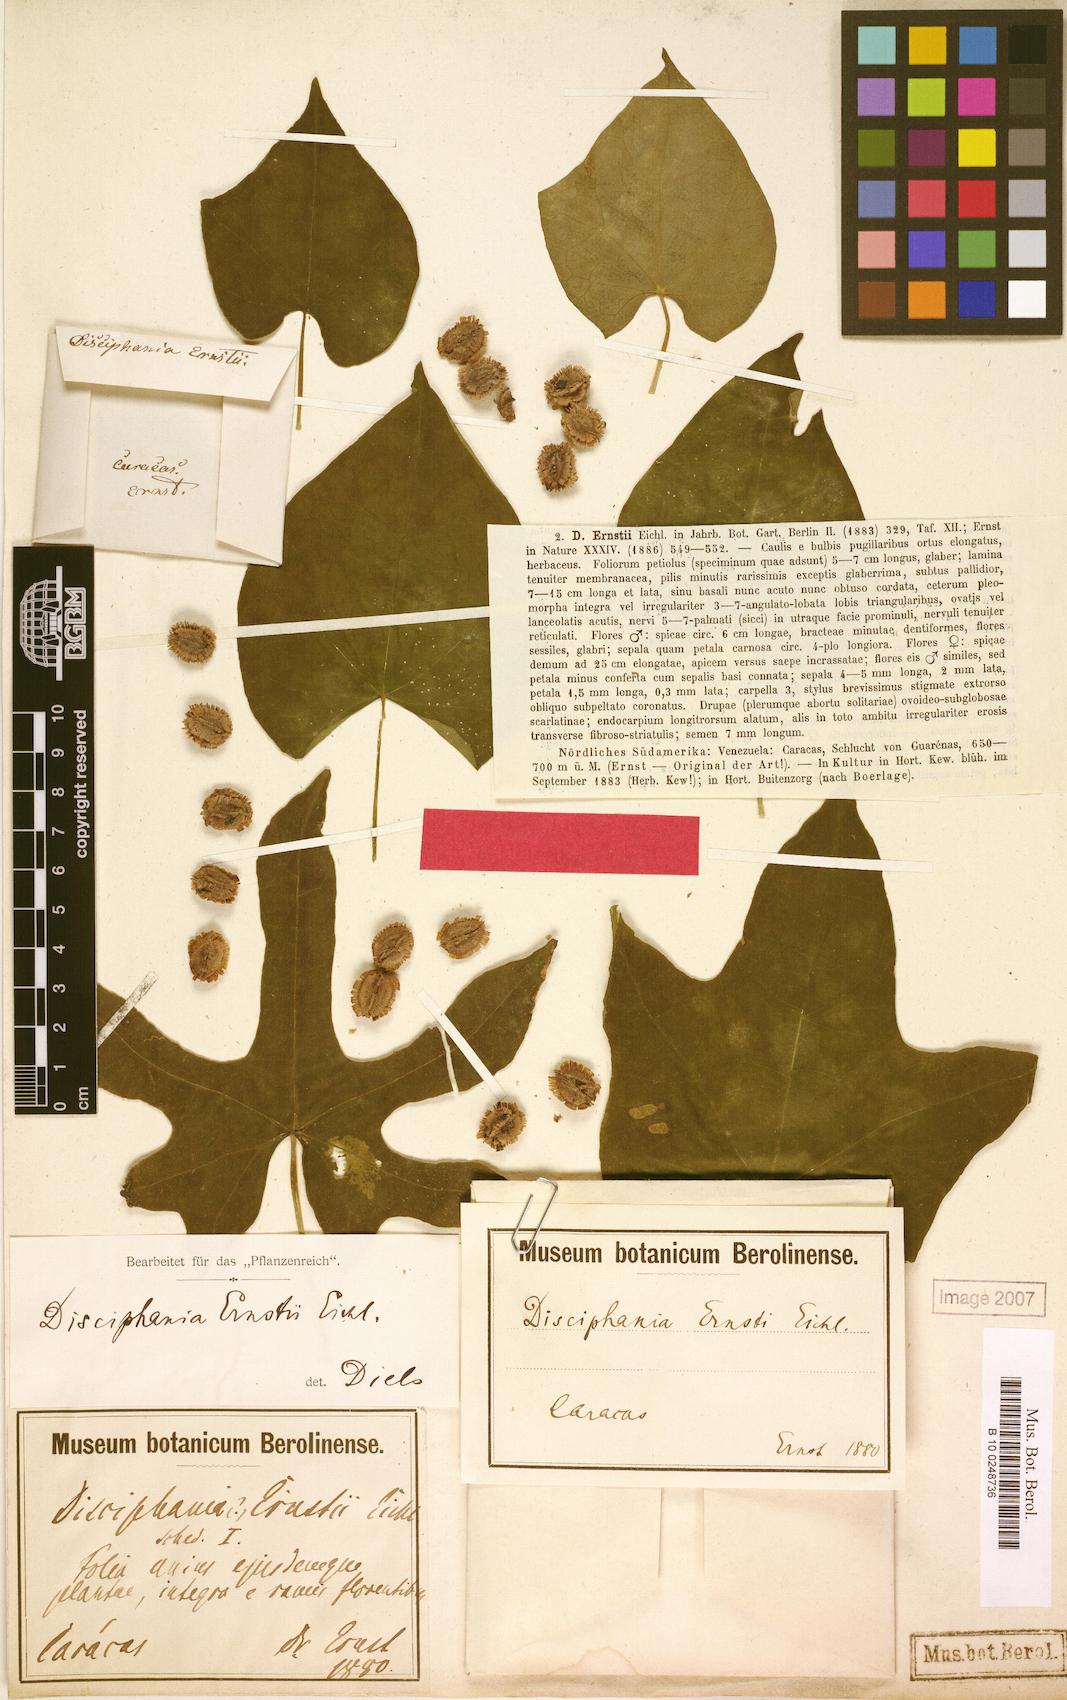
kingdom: Plantae
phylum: Tracheophyta
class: Magnoliopsida
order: Ranunculales
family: Menispermaceae
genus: Disciphania
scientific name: Disciphania ernstii
